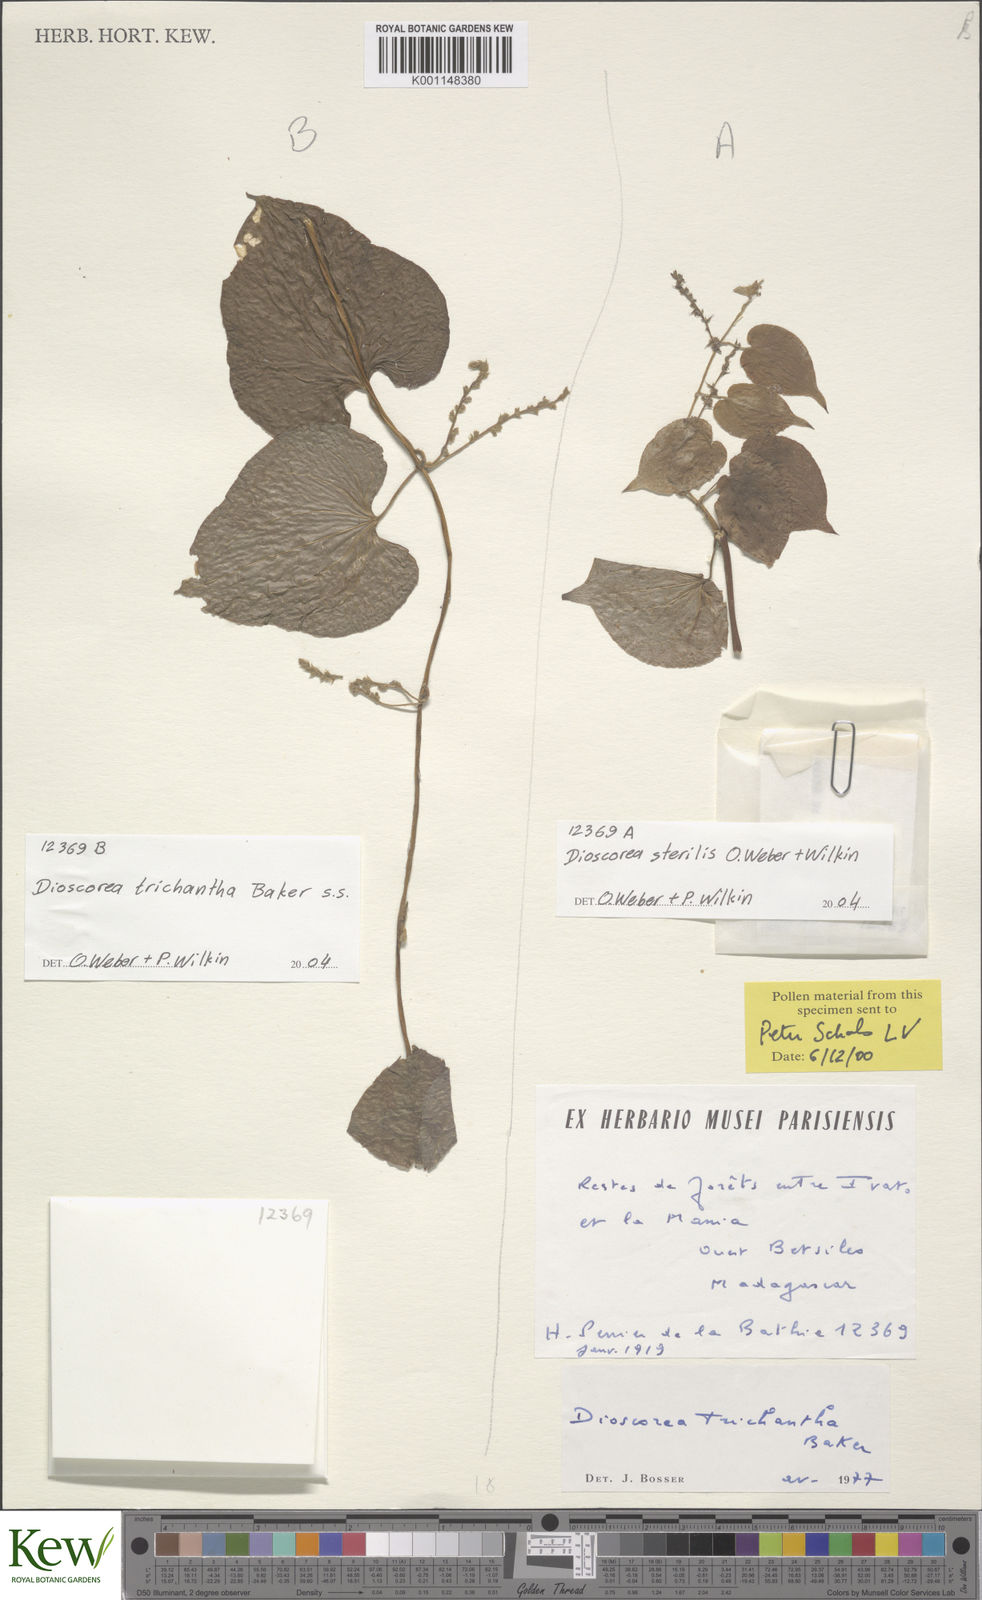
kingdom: Plantae
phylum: Tracheophyta
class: Liliopsida
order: Dioscoreales
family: Dioscoreaceae
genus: Dioscorea
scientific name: Dioscorea sterilis
